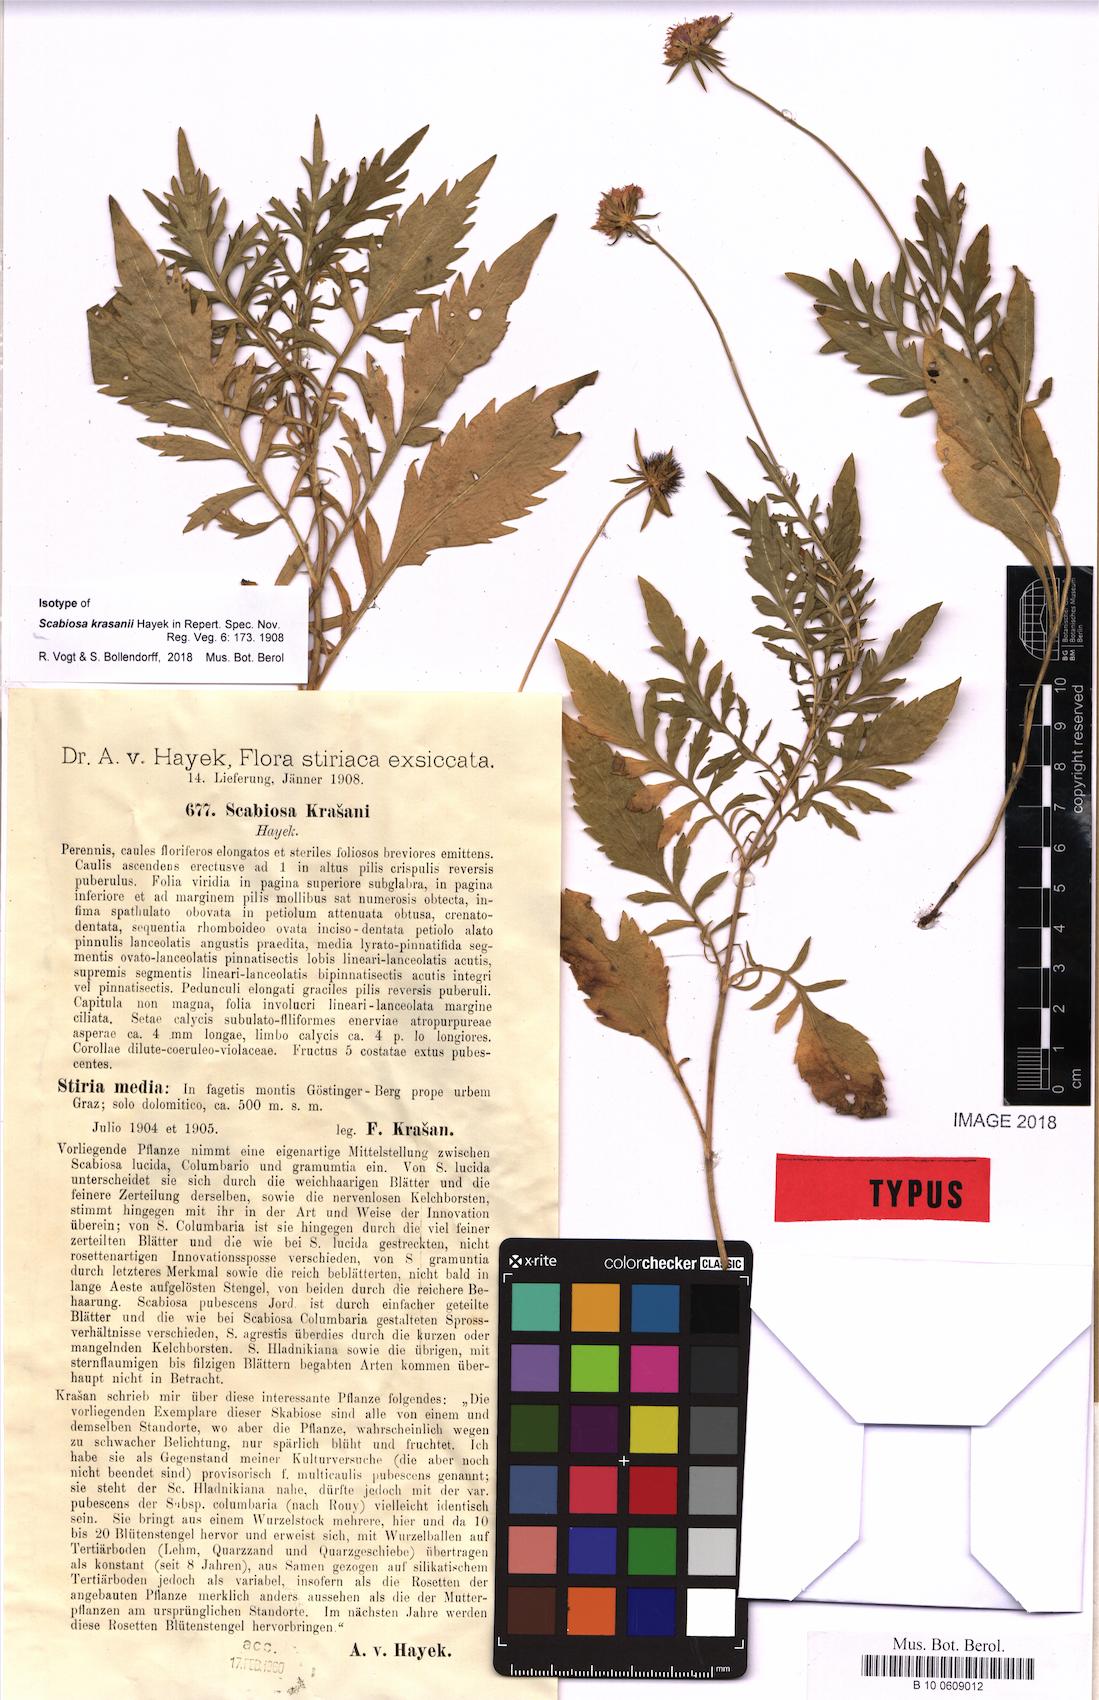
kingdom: Plantae
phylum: Tracheophyta
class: Magnoliopsida
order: Dipsacales
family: Caprifoliaceae
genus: Scabiosa
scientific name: Scabiosa lucida
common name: Shining scabious
